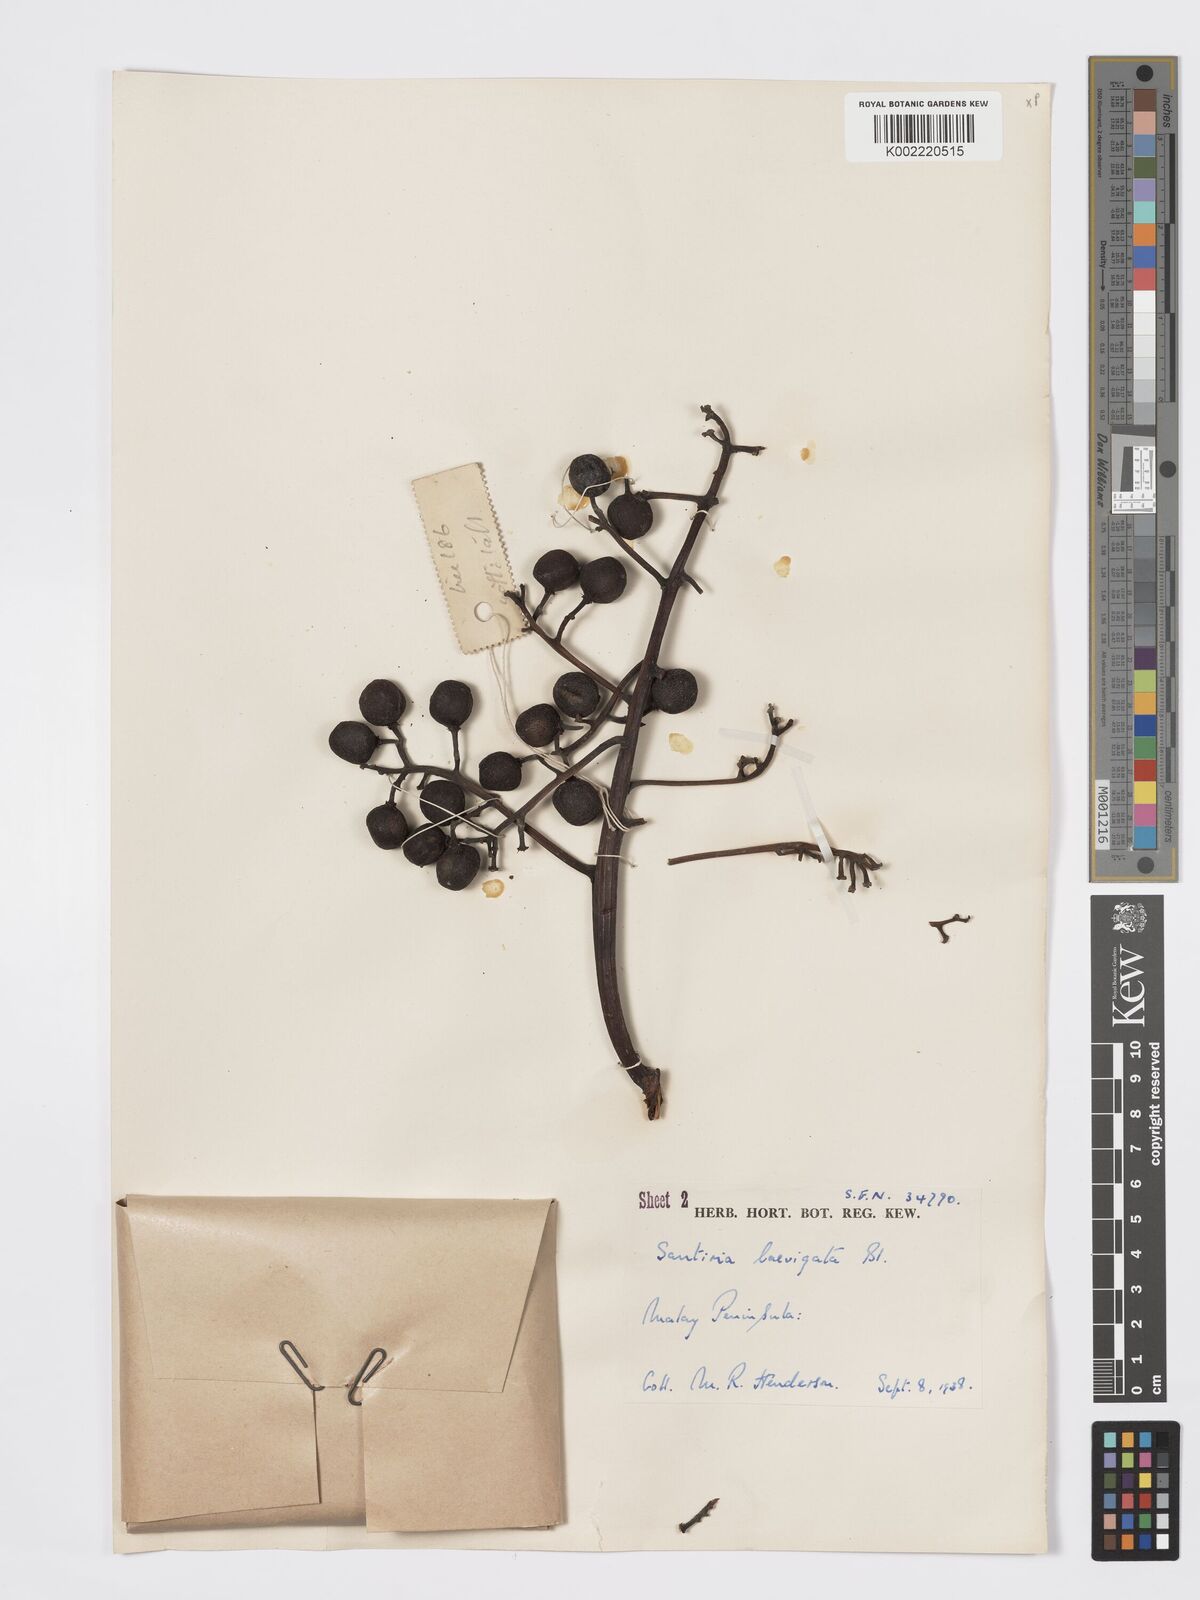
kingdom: Plantae
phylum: Tracheophyta
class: Magnoliopsida
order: Sapindales
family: Burseraceae
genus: Santiria
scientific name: Santiria laevigata
